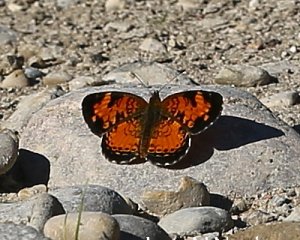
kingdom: Animalia
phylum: Arthropoda
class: Insecta
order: Lepidoptera
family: Nymphalidae
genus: Phyciodes
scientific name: Phyciodes tharos
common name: Pearl Crescent
